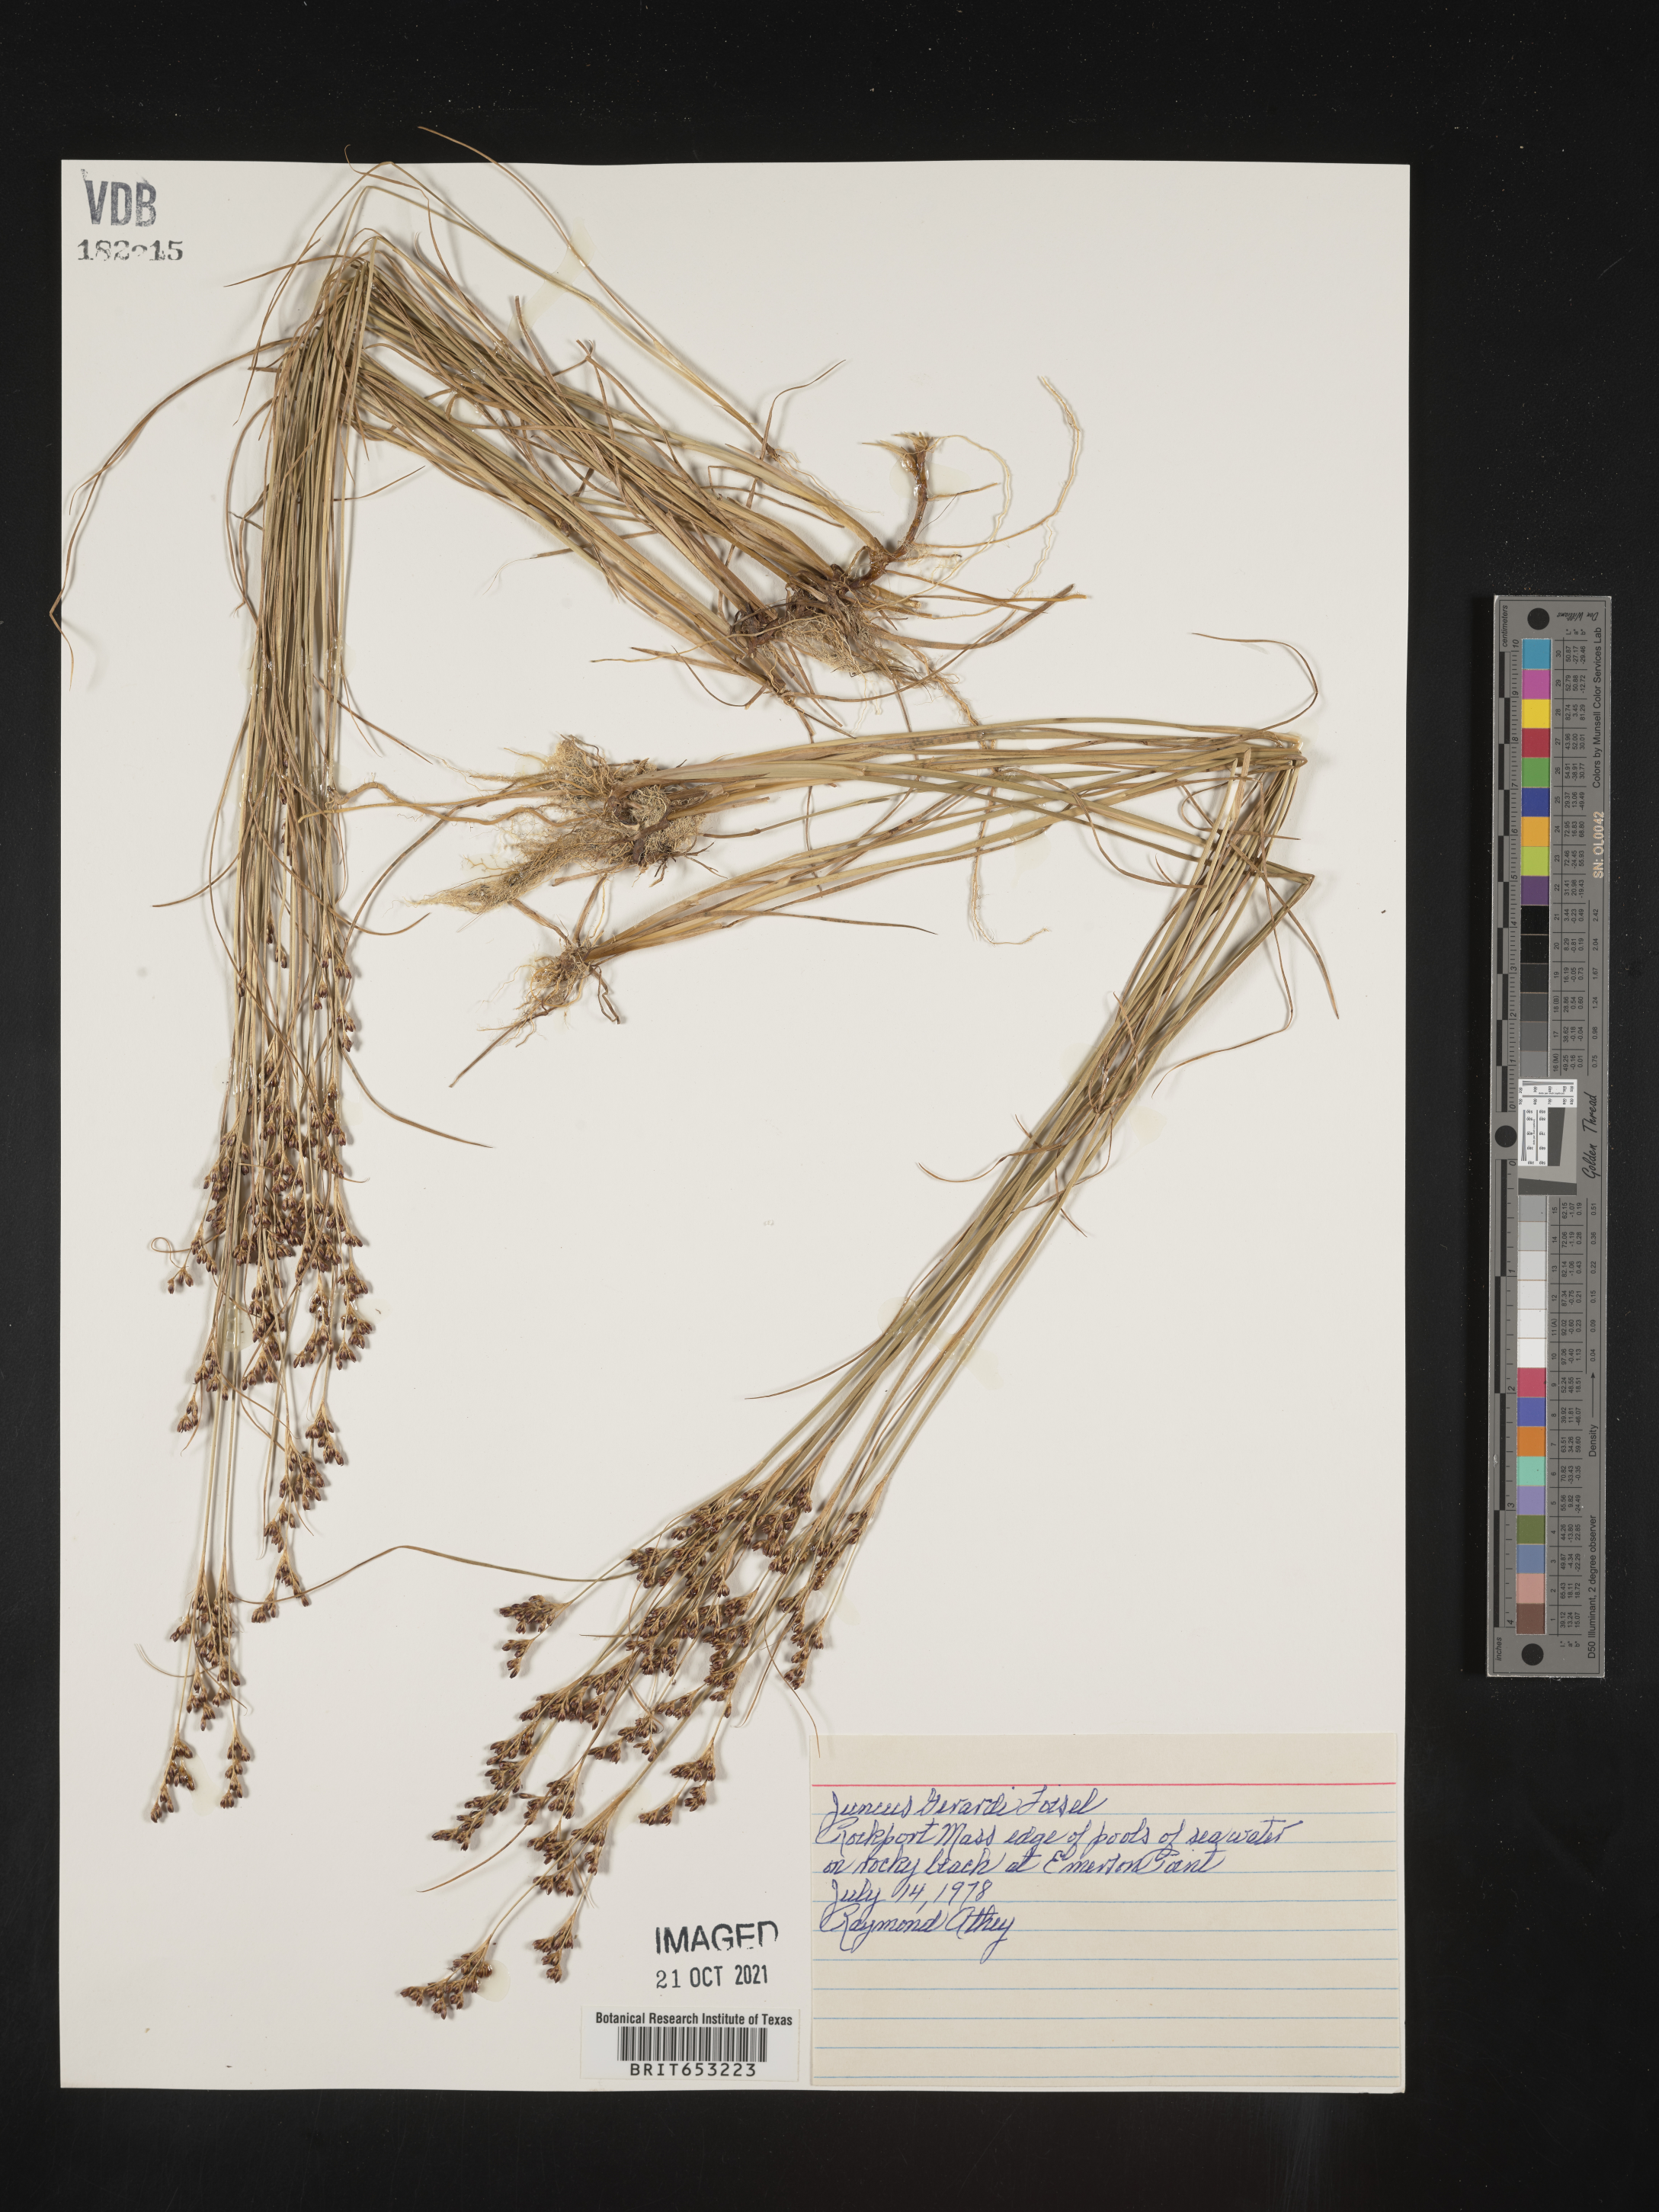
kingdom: Plantae
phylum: Tracheophyta
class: Liliopsida
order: Poales
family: Juncaceae
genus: Juncus
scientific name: Juncus gerardi
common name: Saltmarsh rush
